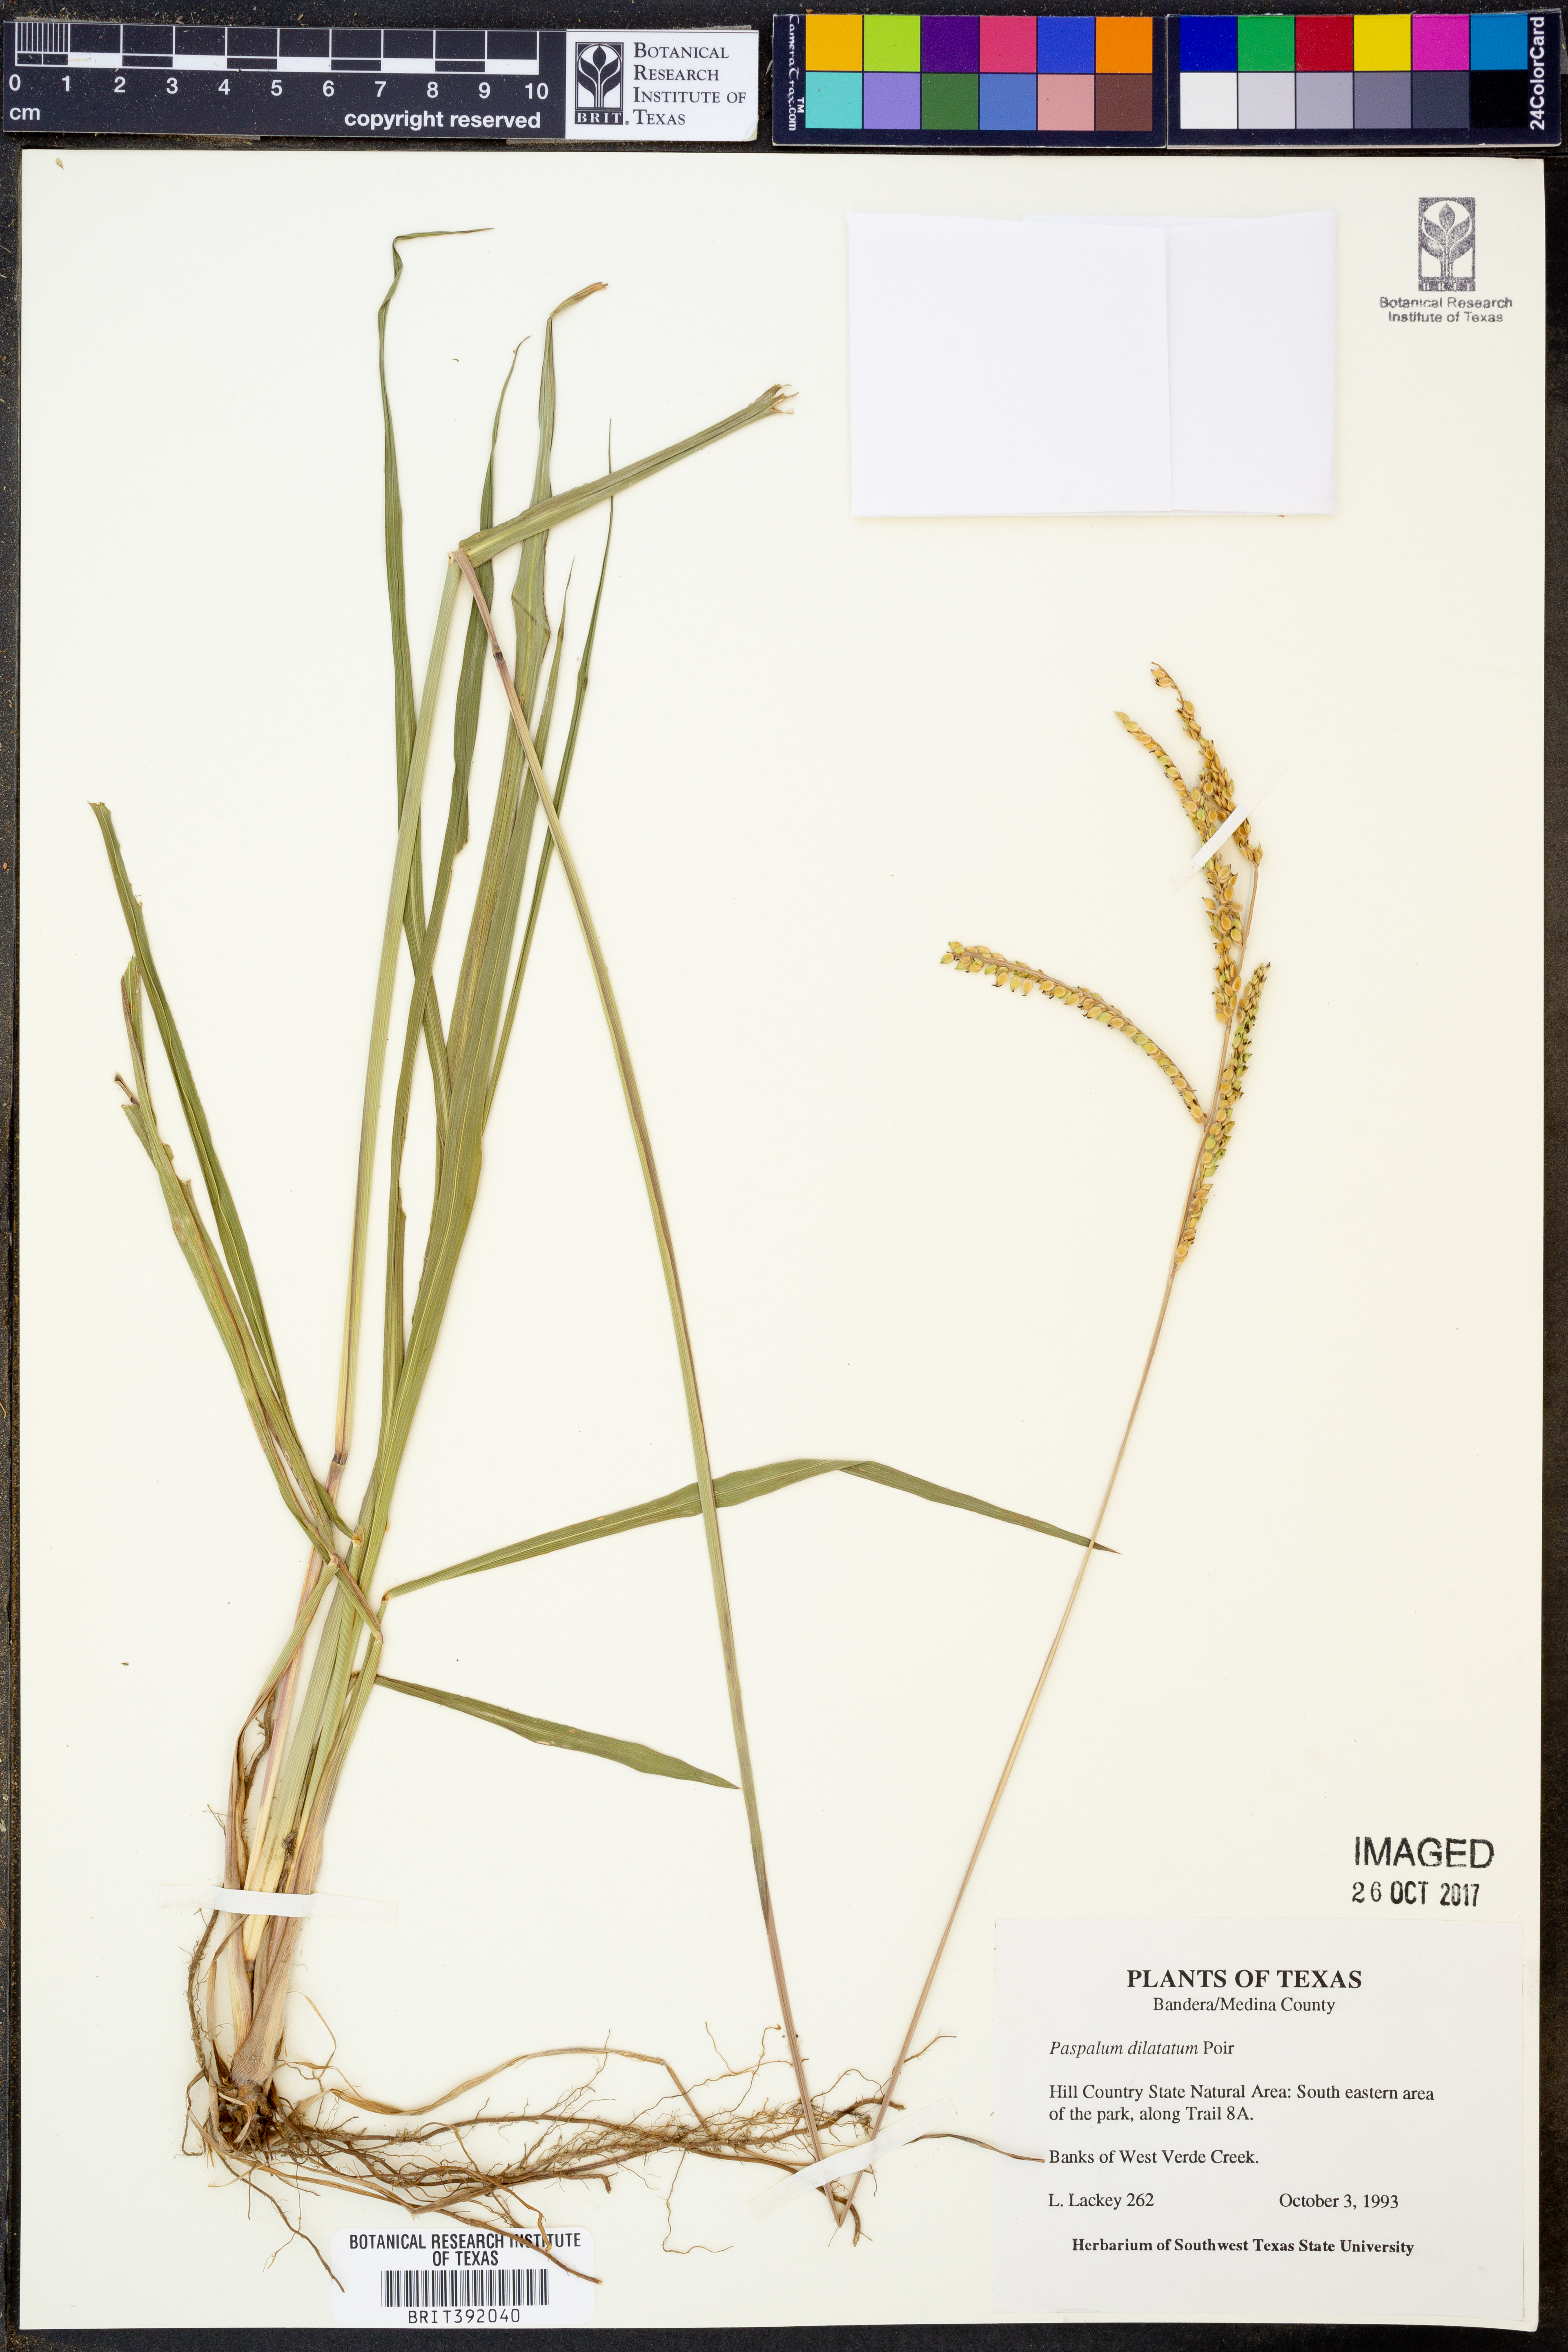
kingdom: Plantae
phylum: Tracheophyta
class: Liliopsida
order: Poales
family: Poaceae
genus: Paspalum
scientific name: Paspalum dilatatum
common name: Dallisgrass
